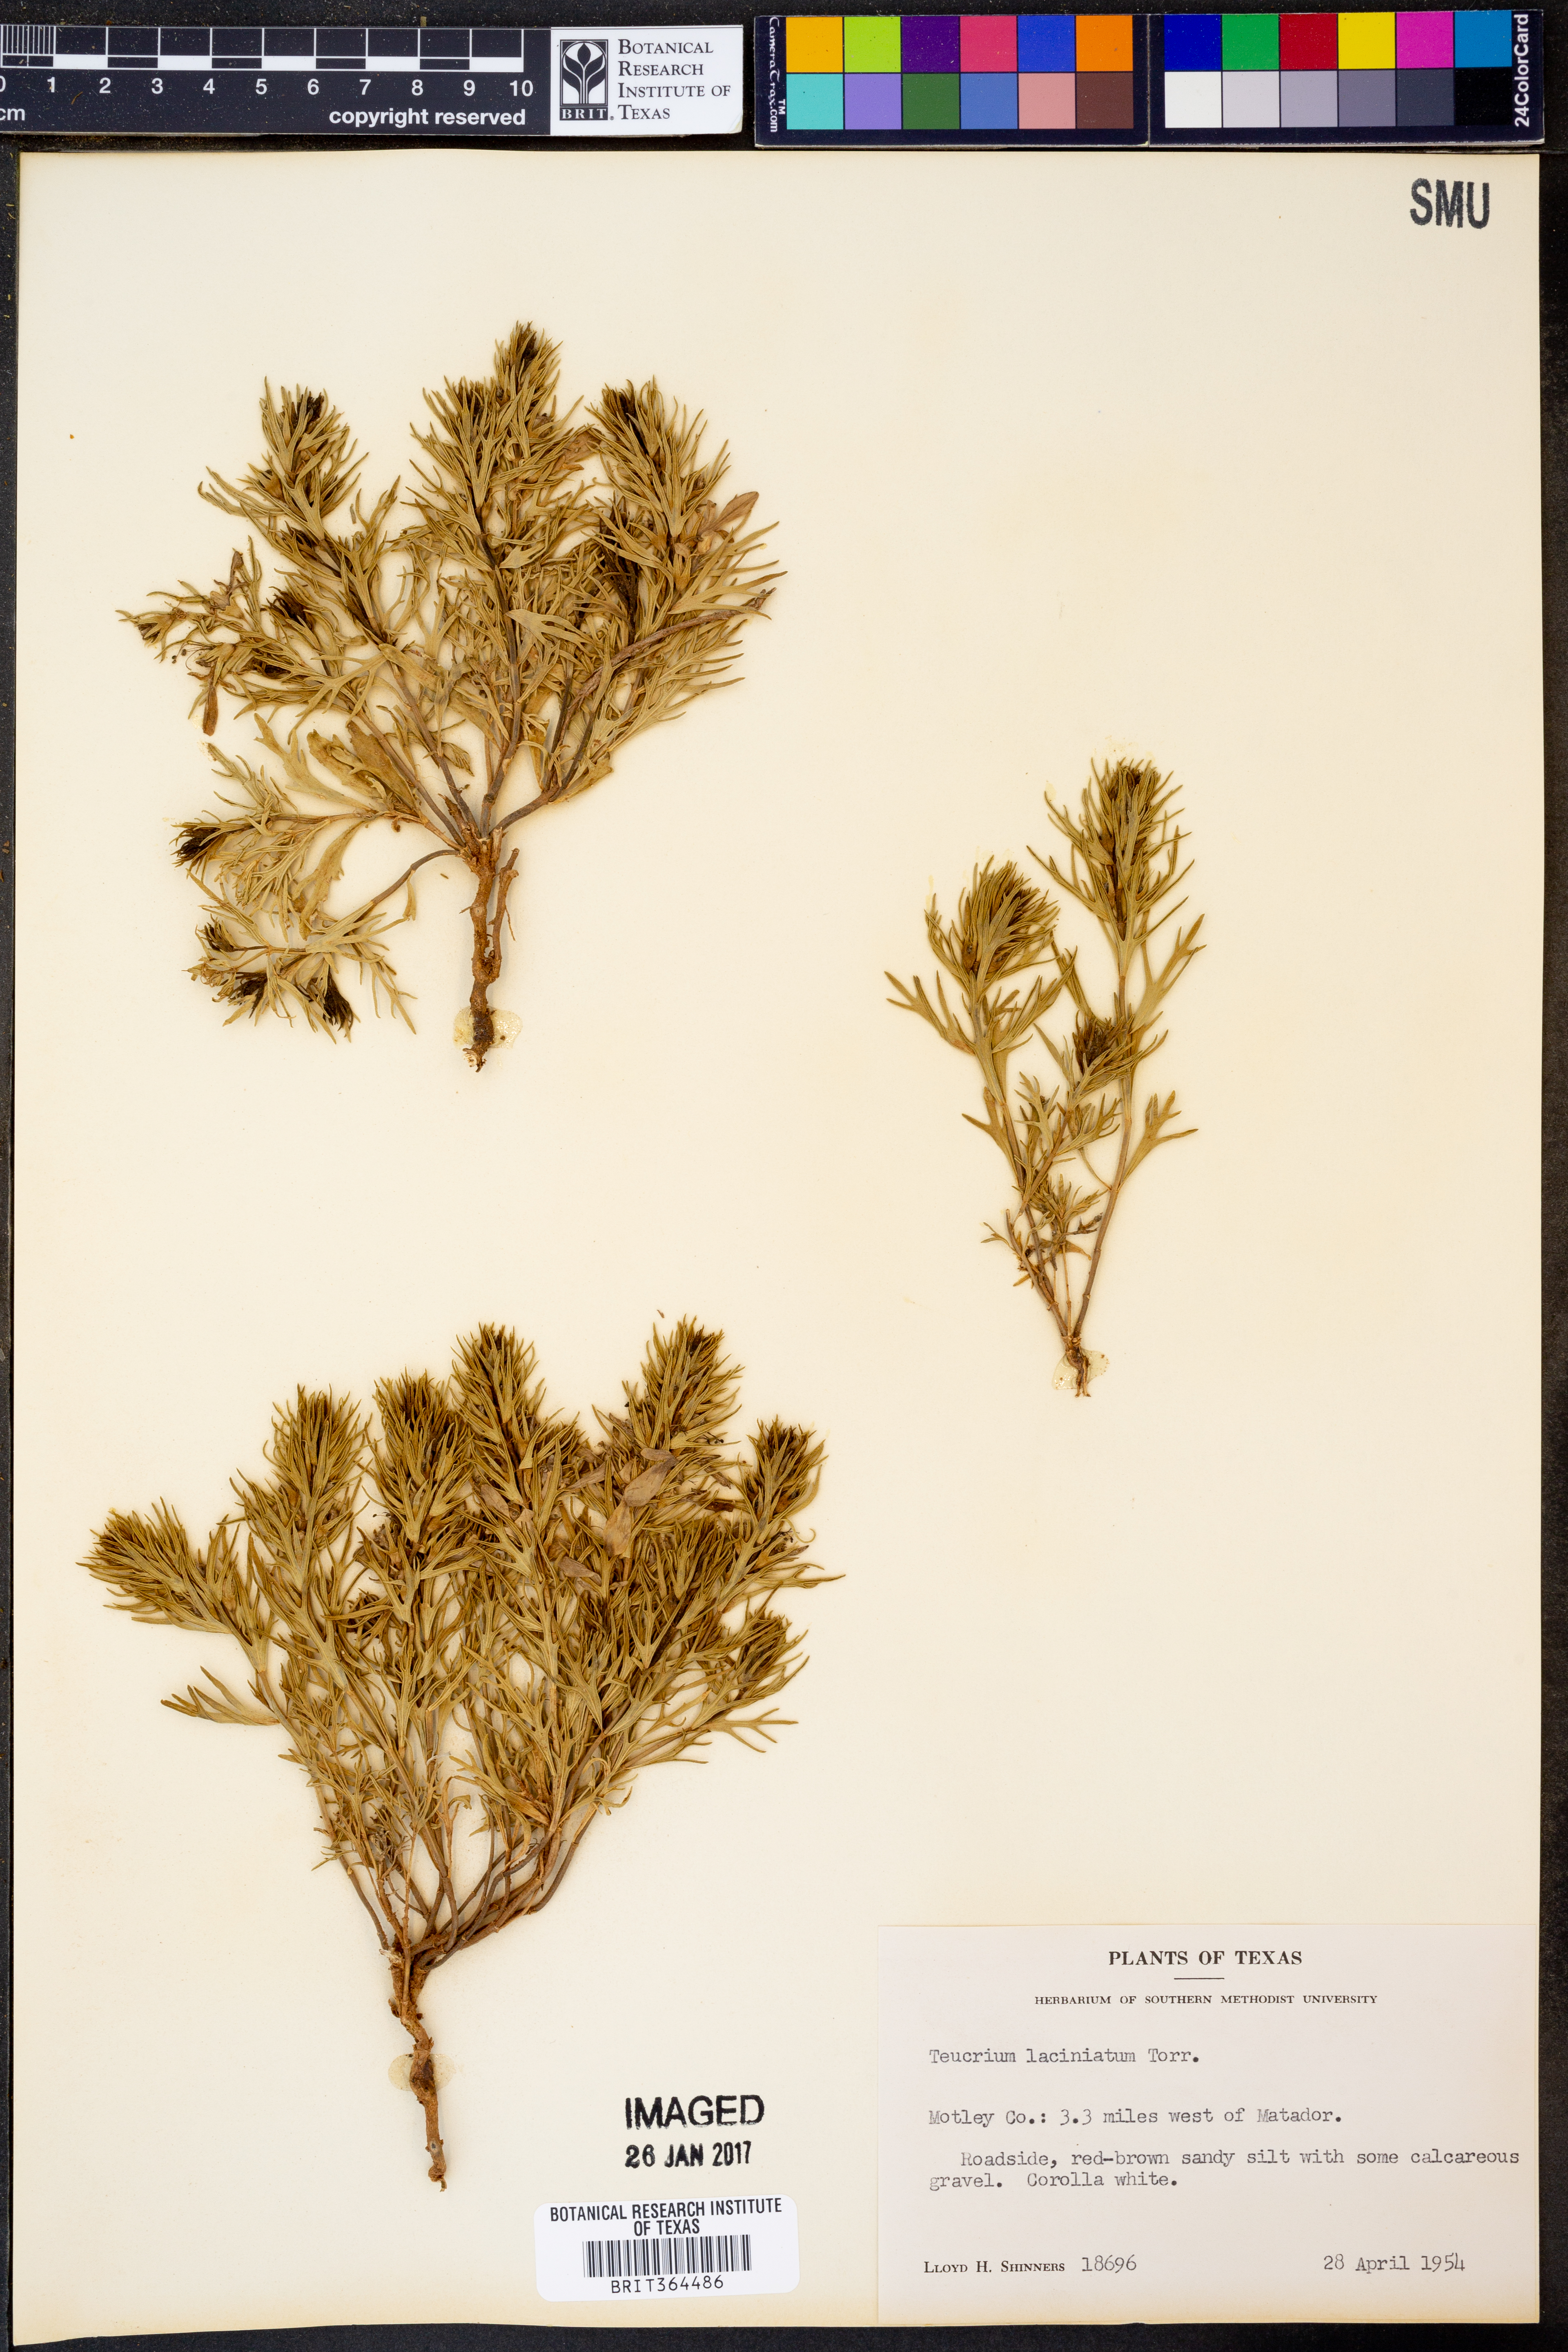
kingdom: Plantae
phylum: Tracheophyta
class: Magnoliopsida
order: Lamiales
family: Lamiaceae
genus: Teucrium
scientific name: Teucrium laciniatum
